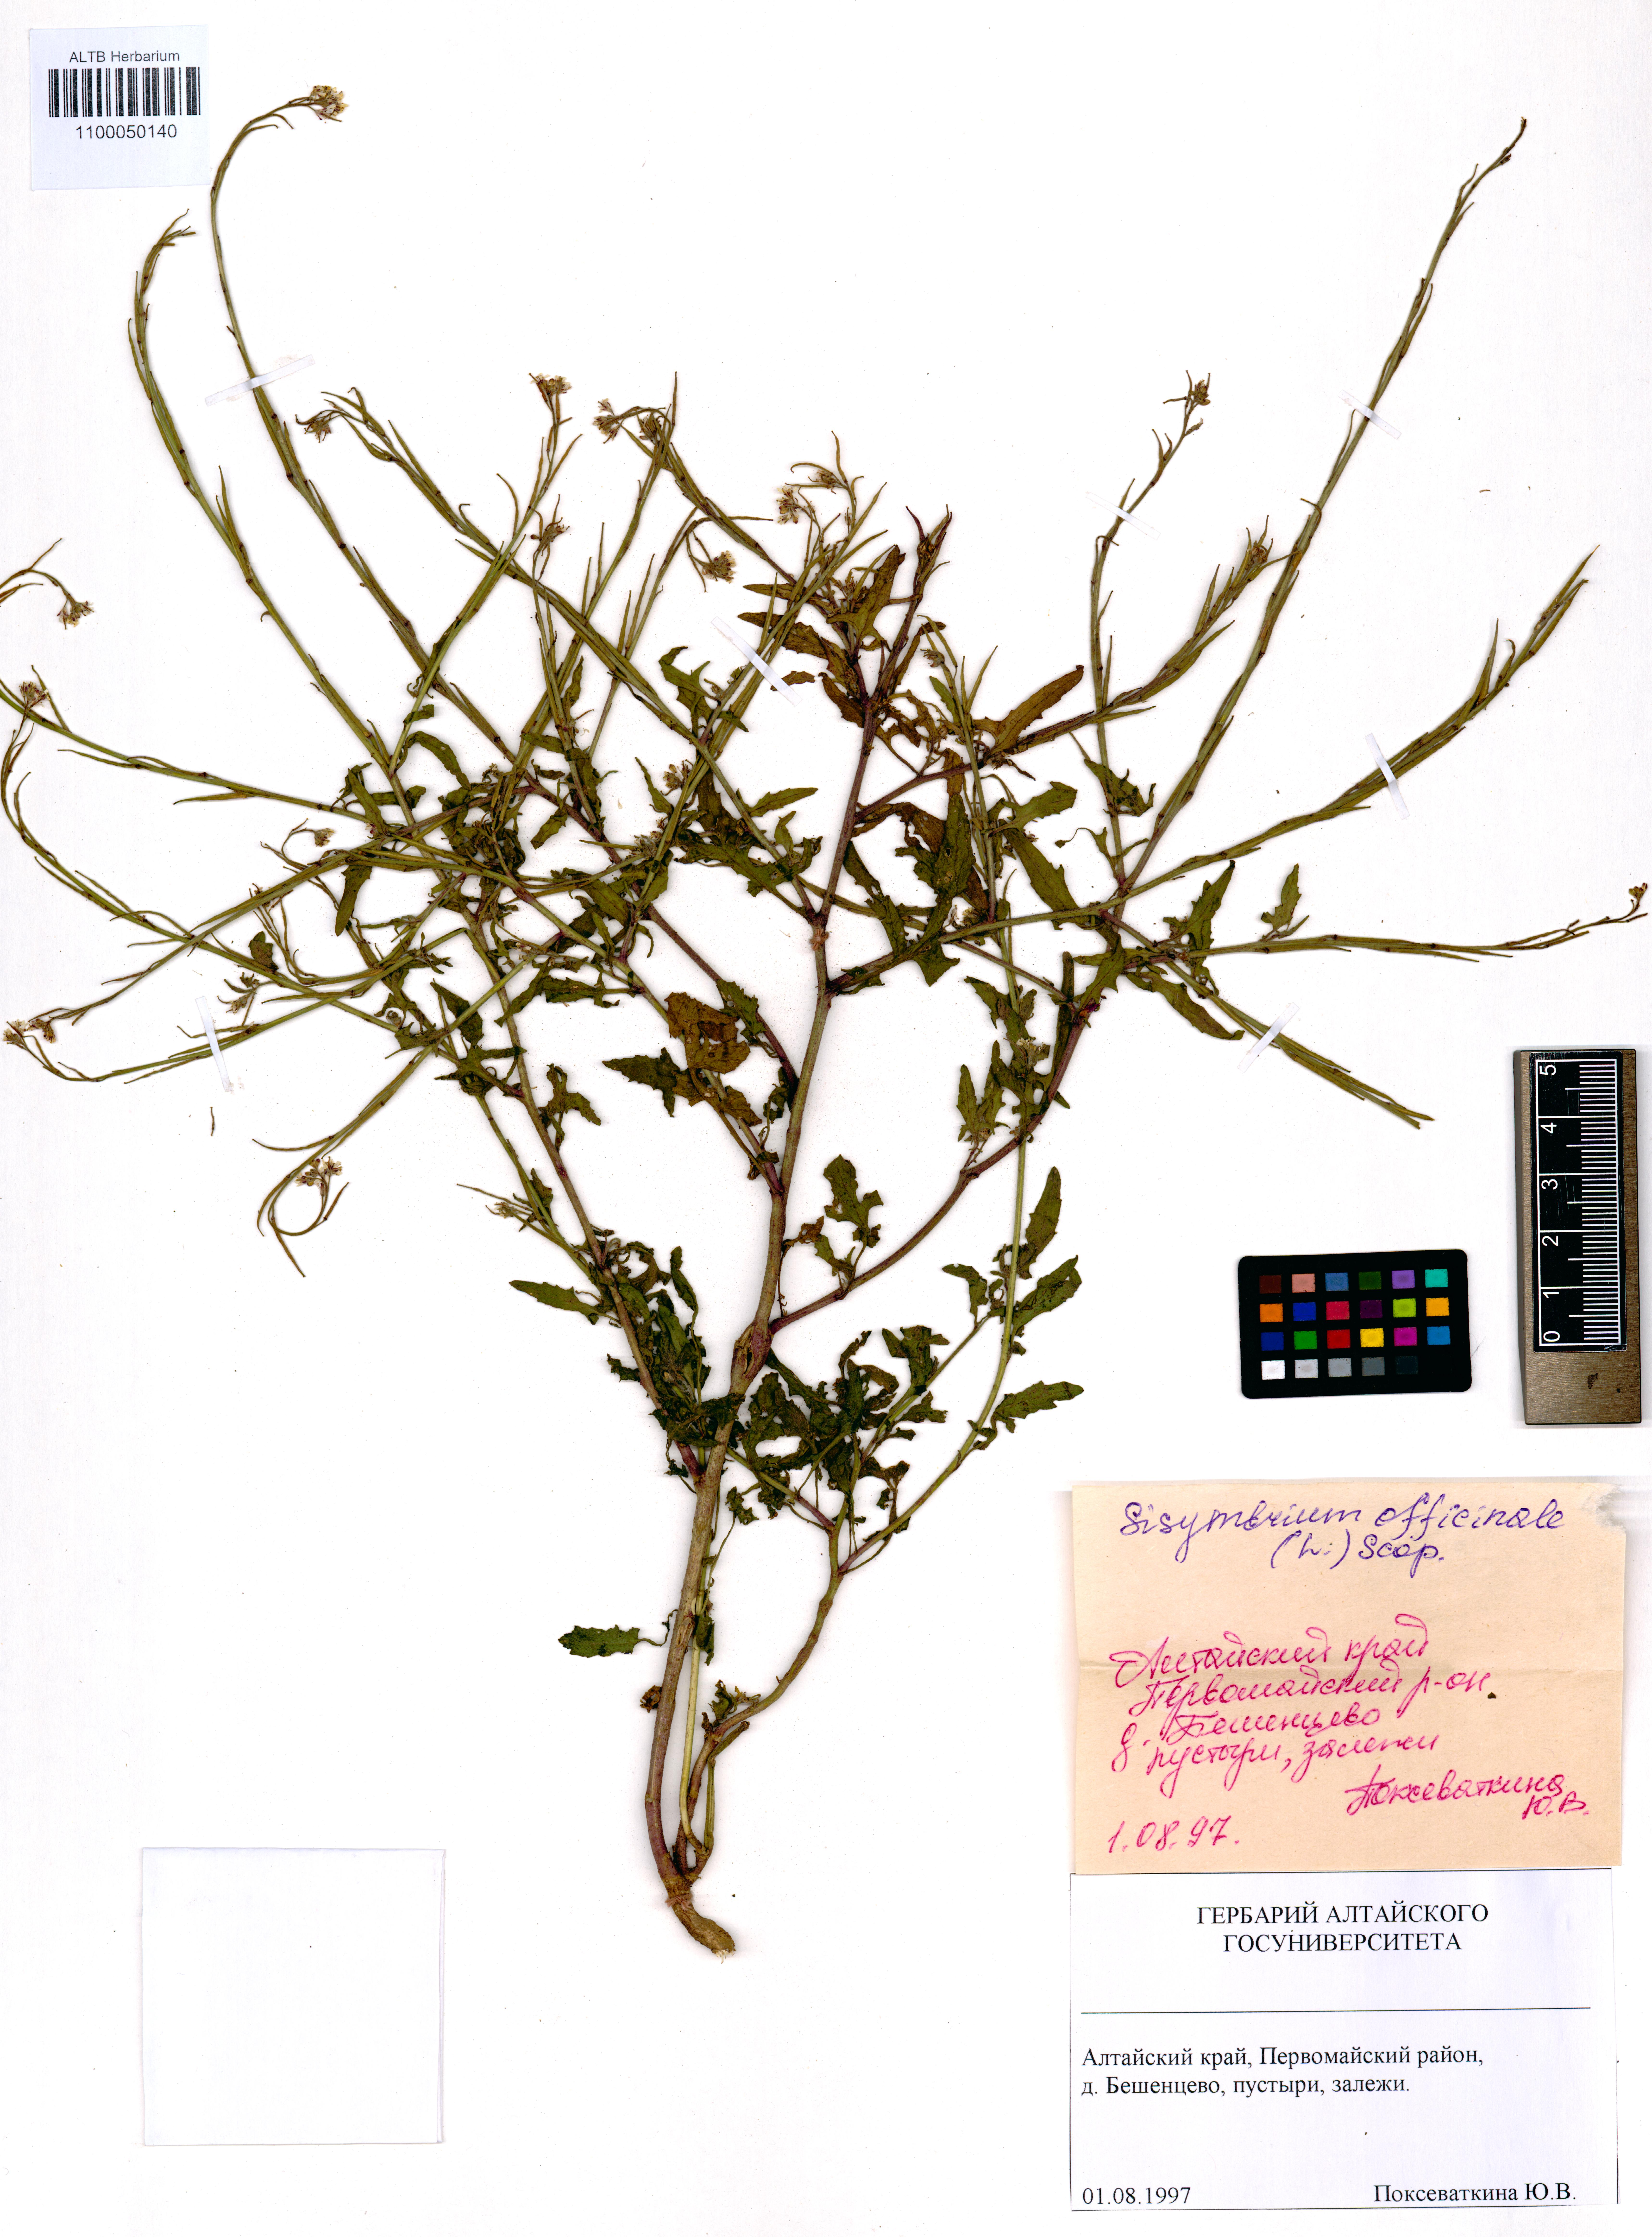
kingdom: Plantae
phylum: Tracheophyta
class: Magnoliopsida
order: Brassicales
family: Brassicaceae
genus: Sisymbrium
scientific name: Sisymbrium officinale
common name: Hedge mustard
